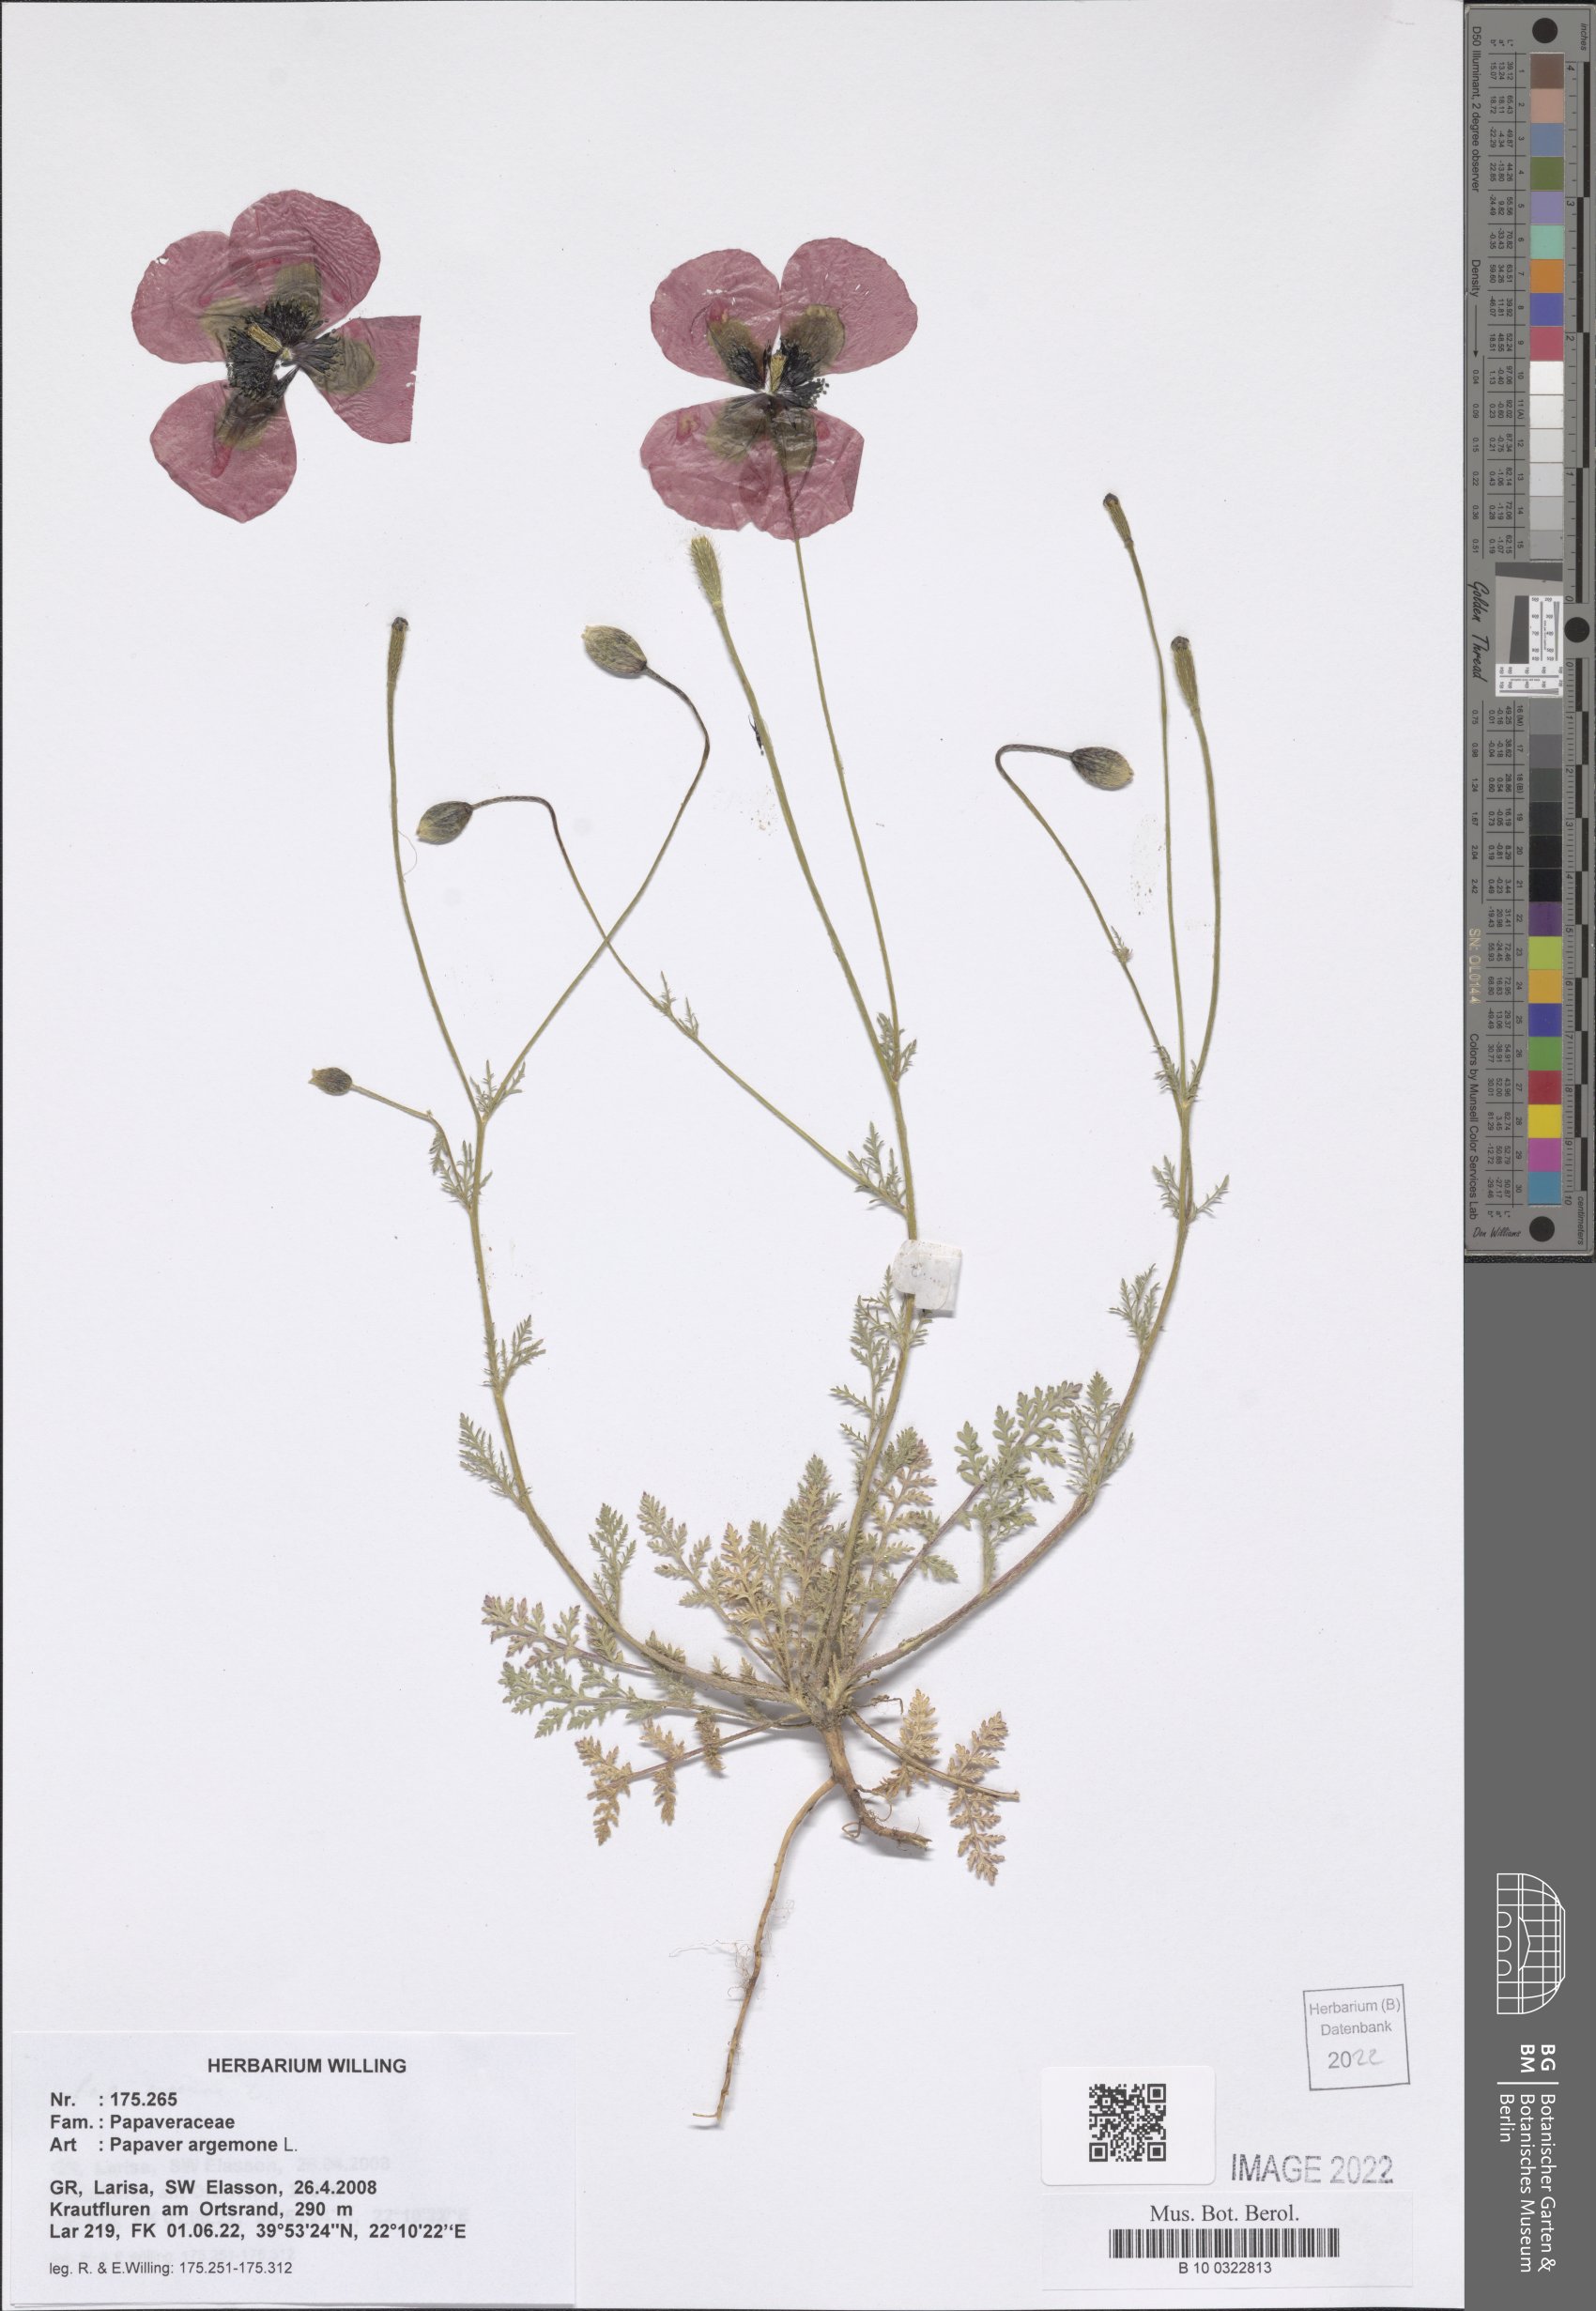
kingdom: Plantae
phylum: Tracheophyta
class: Magnoliopsida
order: Ranunculales
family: Papaveraceae
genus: Roemeria
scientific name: Roemeria argemone
